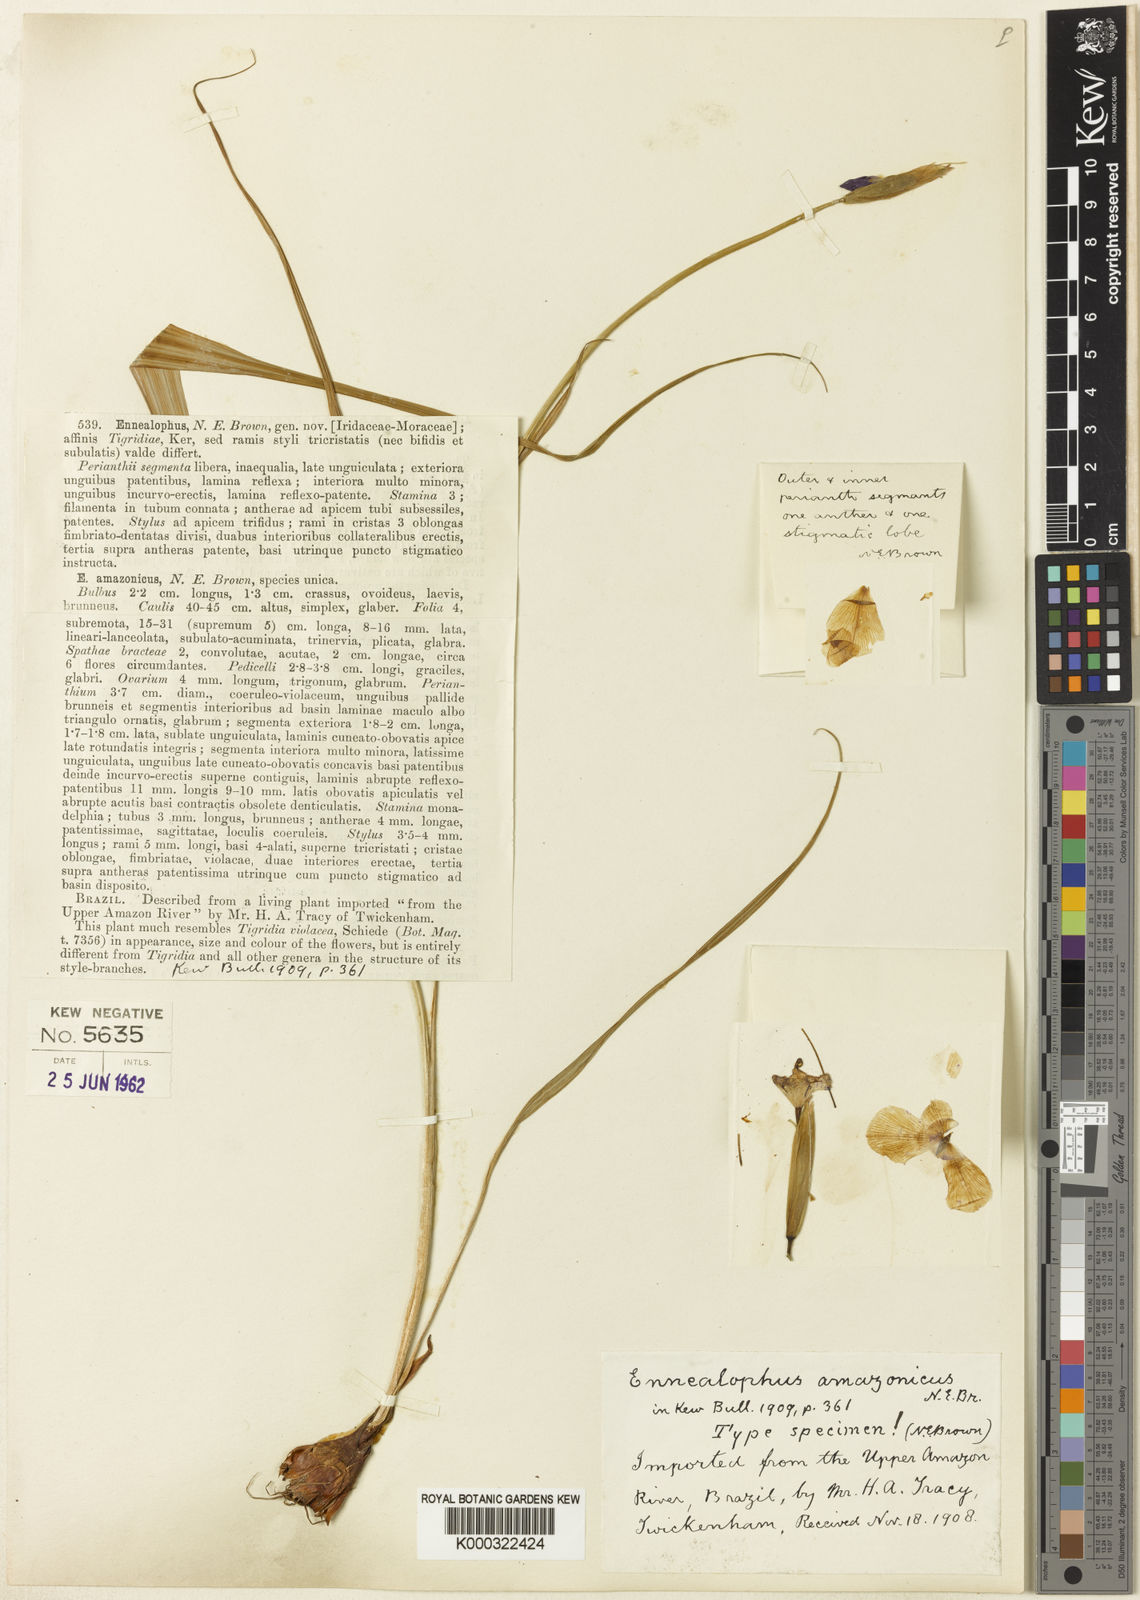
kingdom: Plantae
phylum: Tracheophyta
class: Liliopsida
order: Asparagales
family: Iridaceae
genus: Ennealophus
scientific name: Ennealophus foliosus
